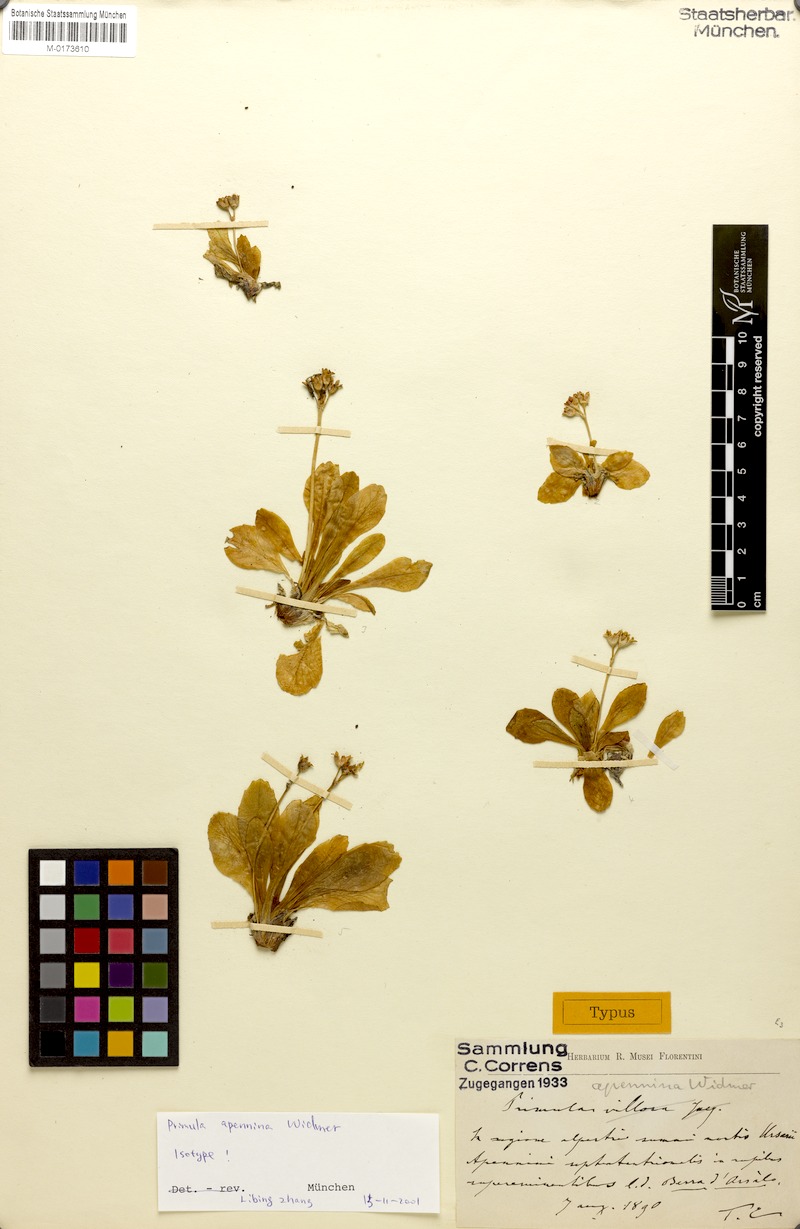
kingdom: Plantae
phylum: Tracheophyta
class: Magnoliopsida
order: Ericales
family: Primulaceae
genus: Primula
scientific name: Primula apennina
